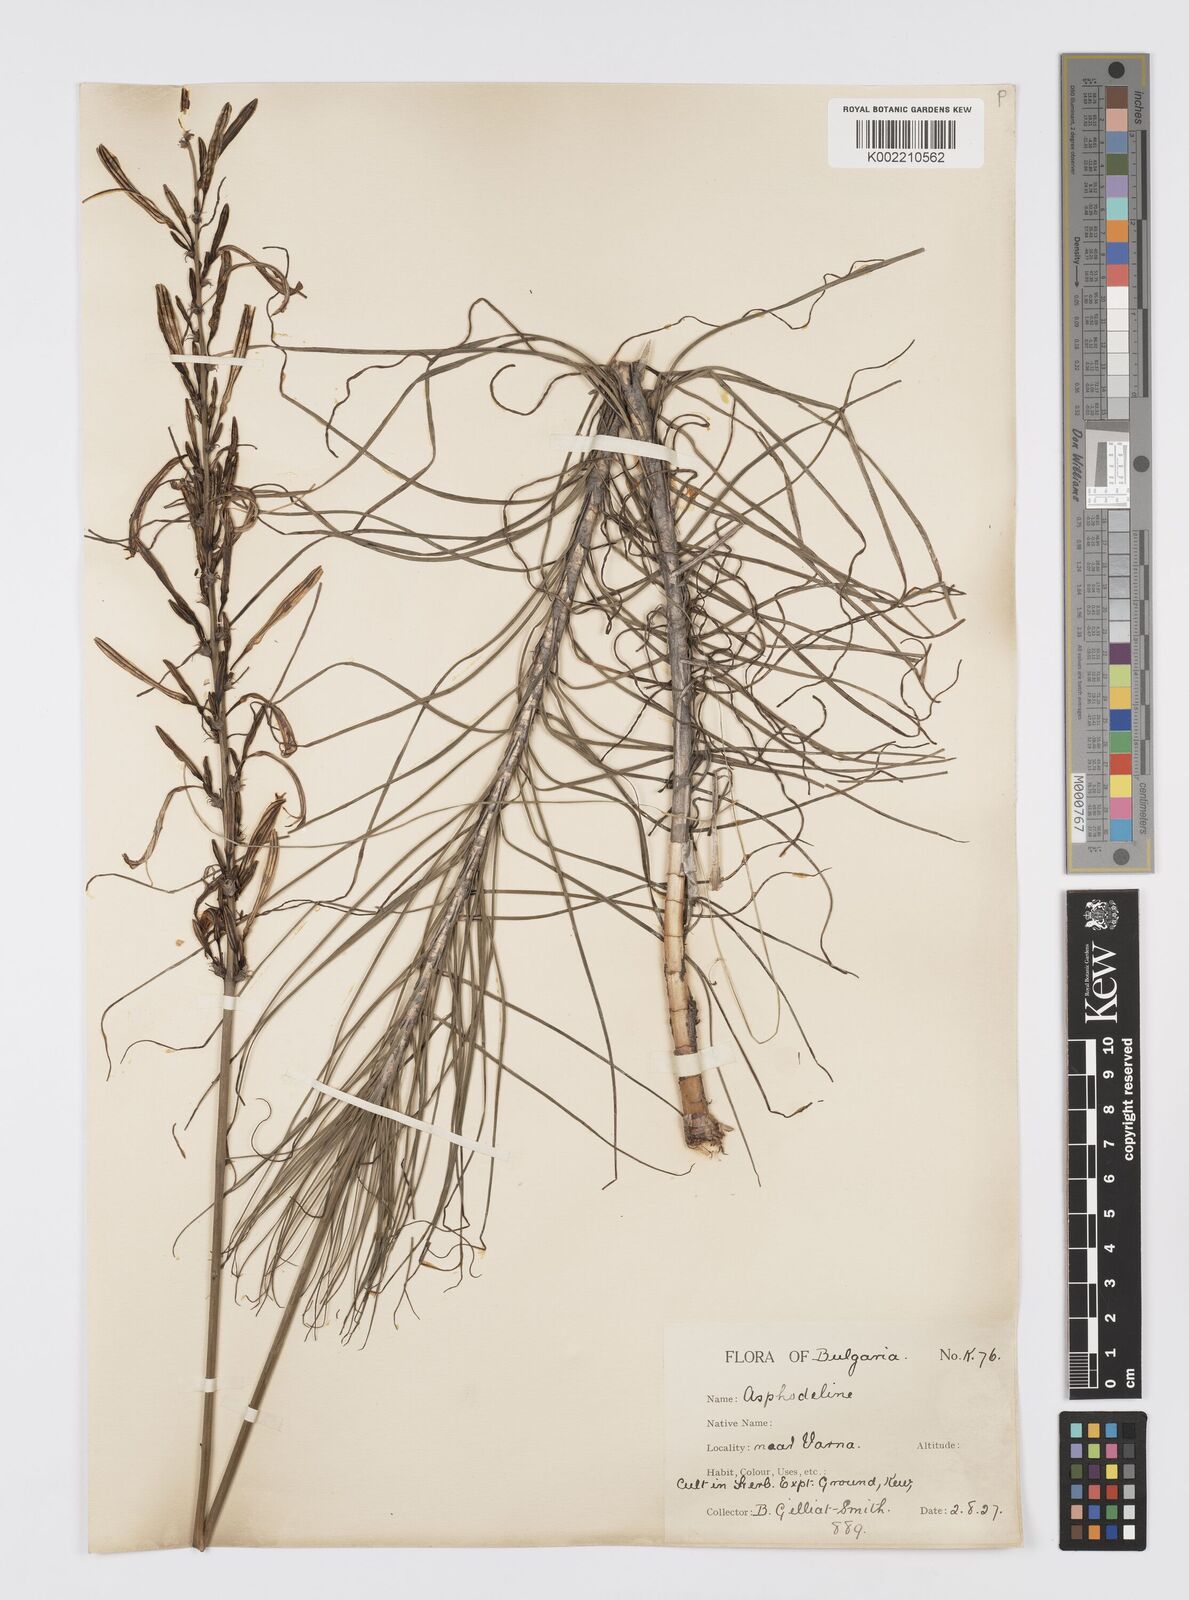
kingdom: Plantae
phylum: Tracheophyta
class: Liliopsida
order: Asparagales
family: Asphodelaceae
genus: Asphodeline
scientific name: Asphodeline liburnica
